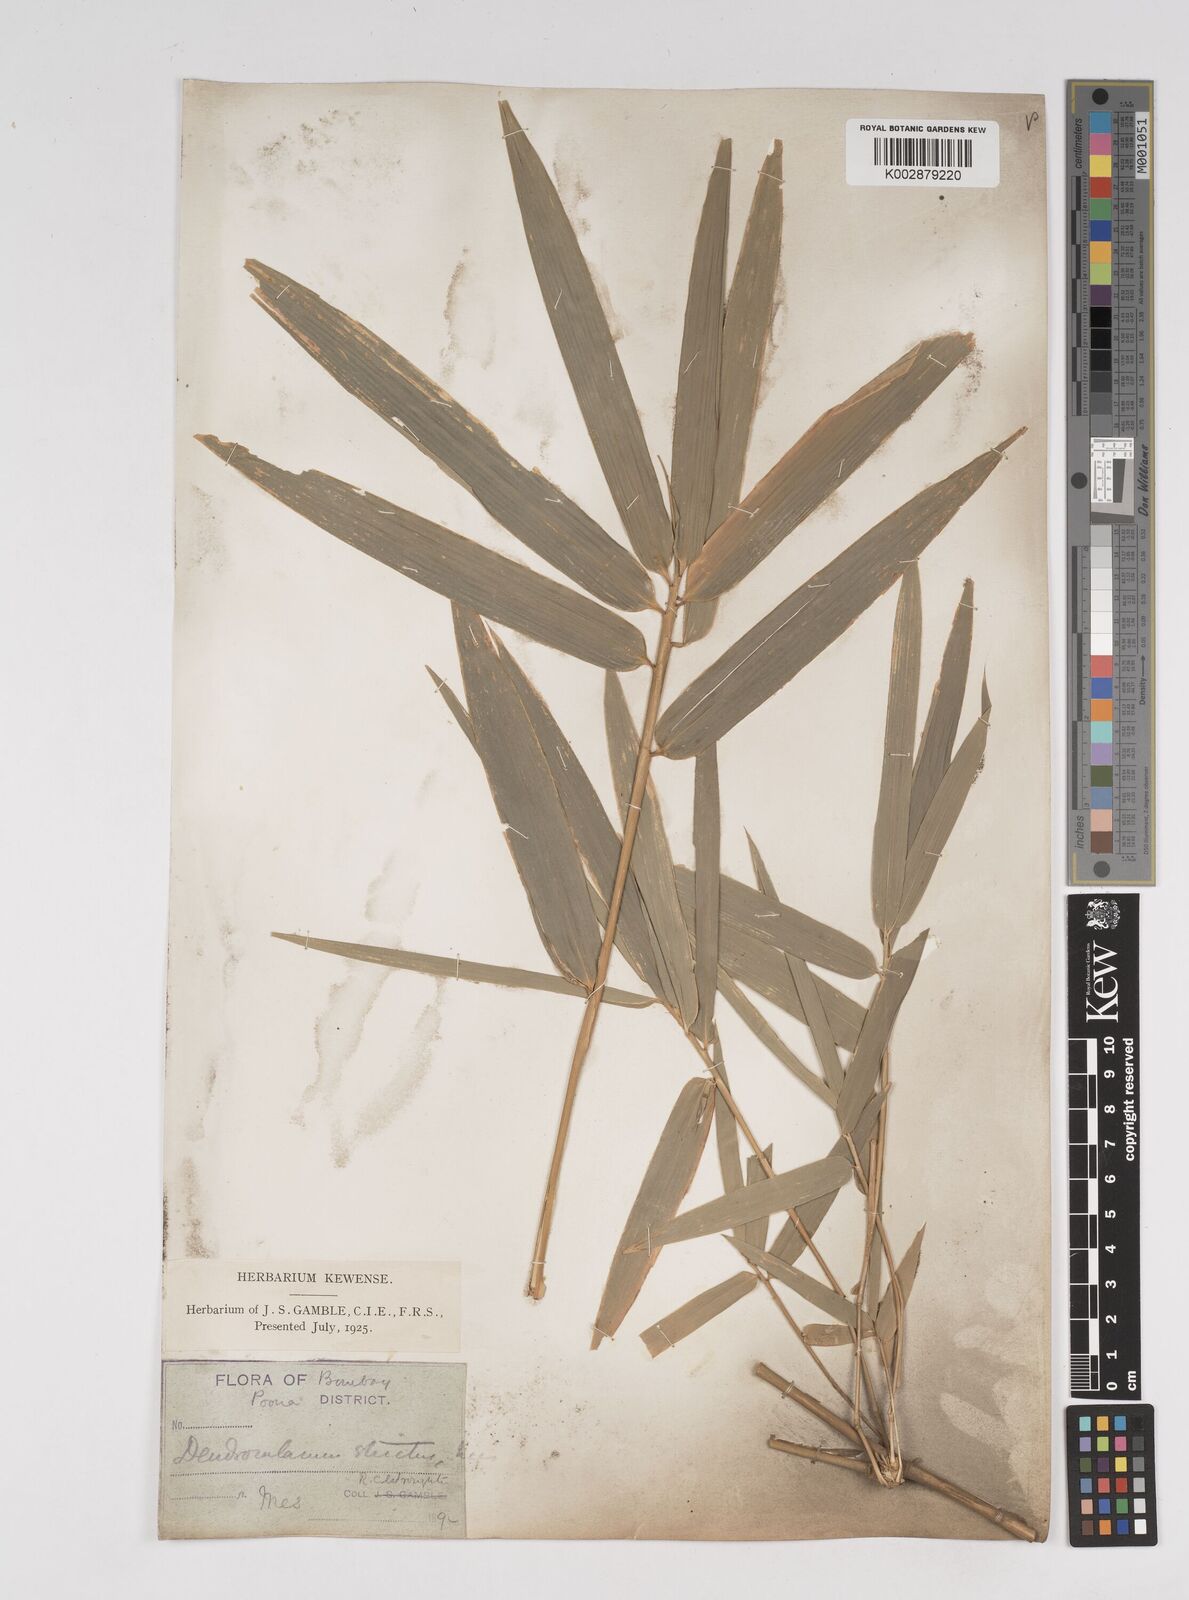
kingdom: Plantae
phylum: Tracheophyta
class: Liliopsida
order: Poales
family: Poaceae
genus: Dendrocalamus
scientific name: Dendrocalamus strictus
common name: Male bamboo
